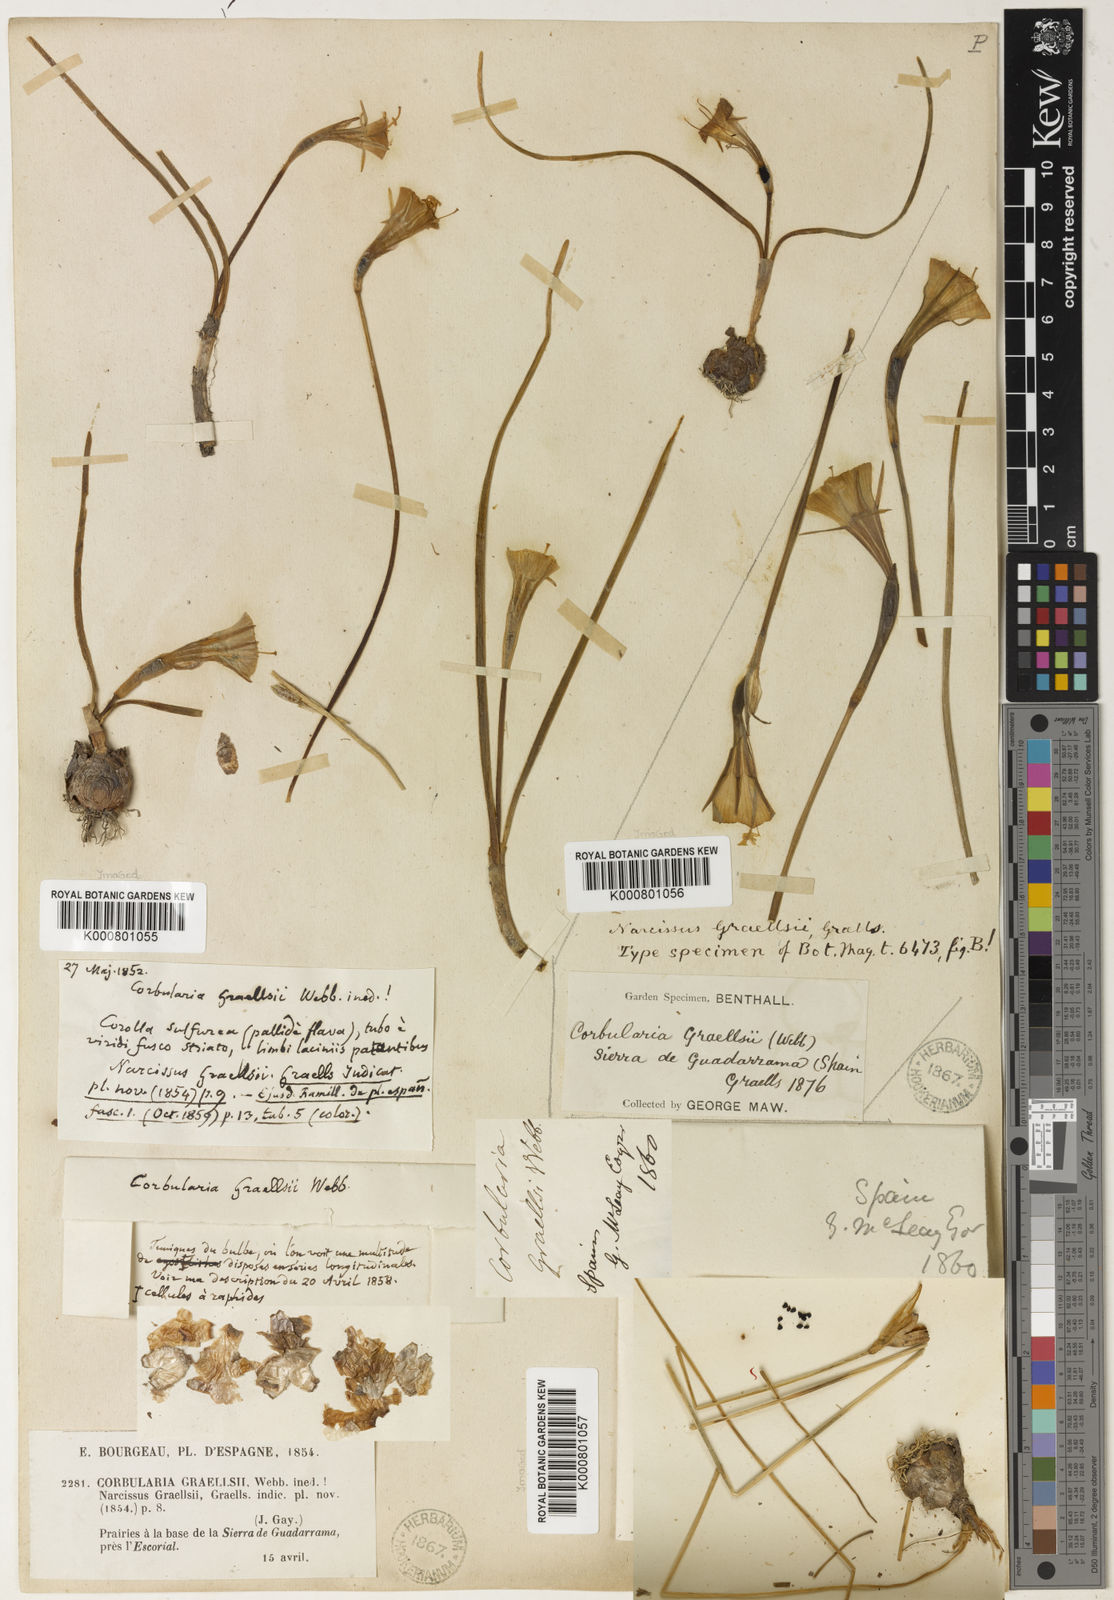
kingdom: Plantae
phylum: Tracheophyta
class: Liliopsida
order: Asparagales
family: Amaryllidaceae
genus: Narcissus
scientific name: Narcissus bulbocodium
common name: Hoop-petticoat daffodil
